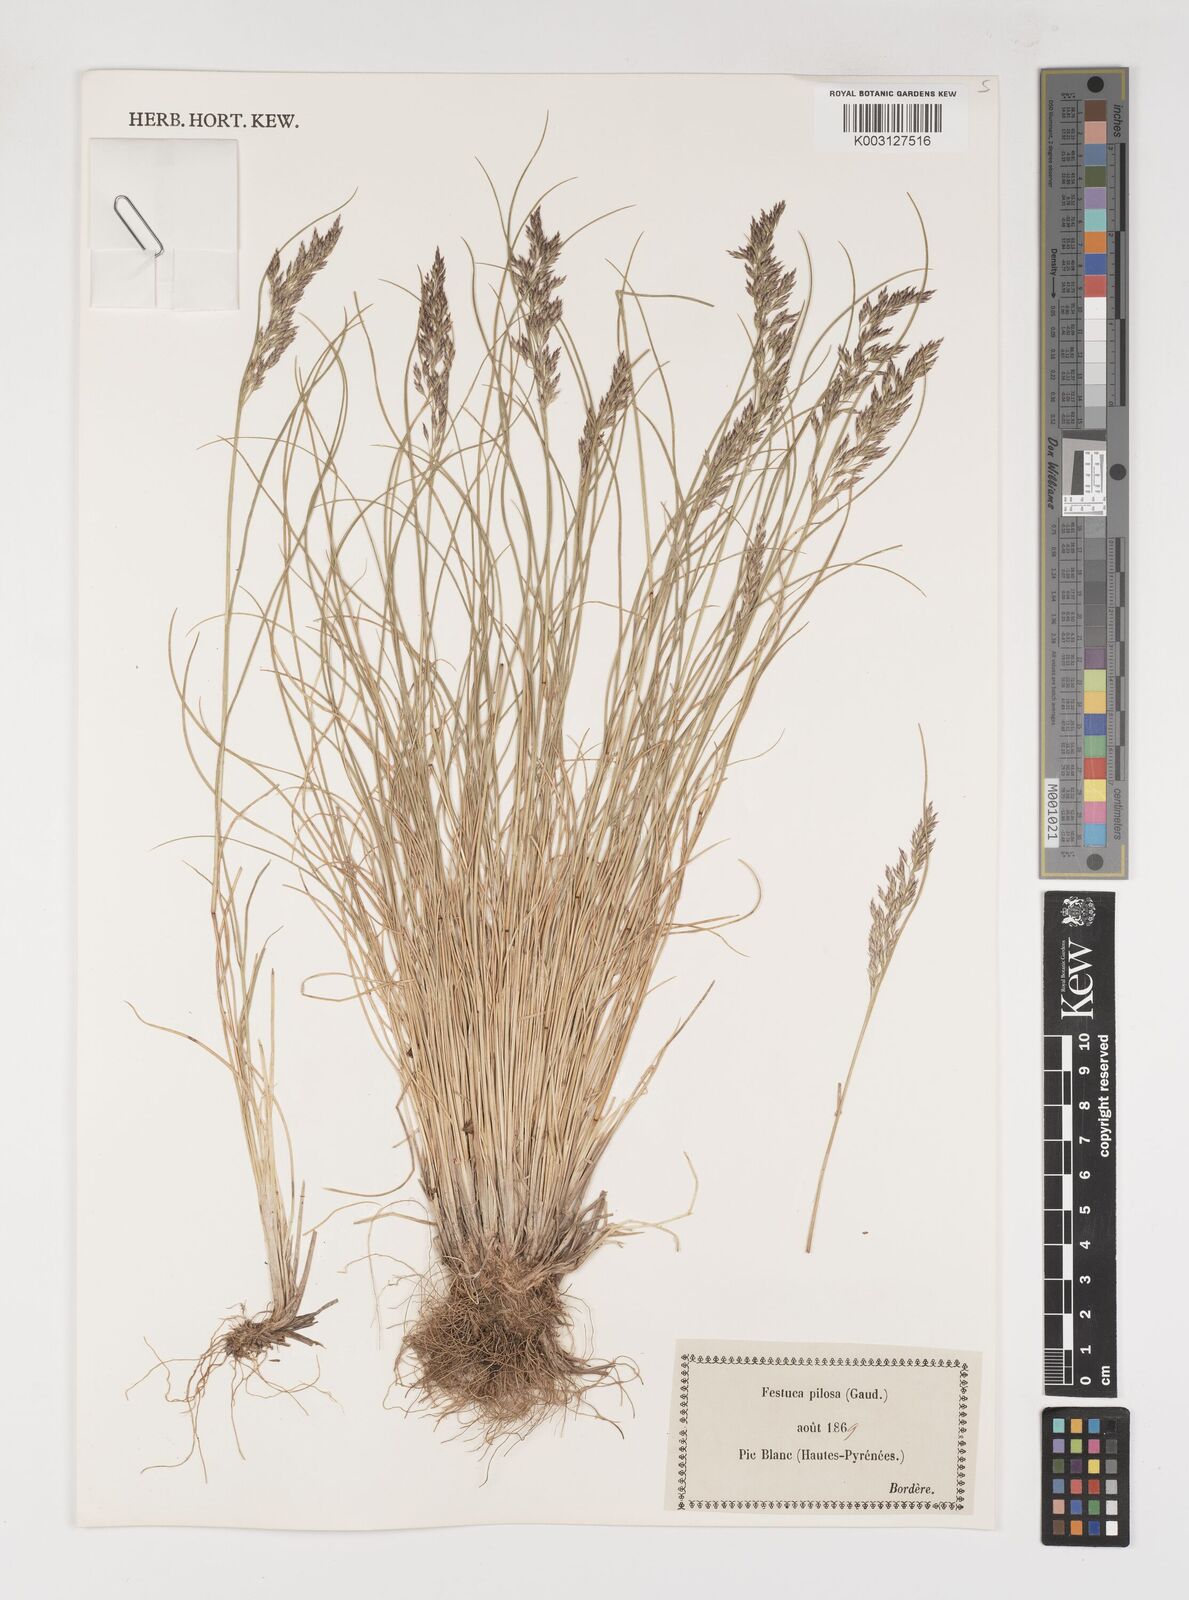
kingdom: Plantae
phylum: Tracheophyta
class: Liliopsida
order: Poales
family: Poaceae
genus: Bellardiochloa
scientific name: Bellardiochloa variegata
